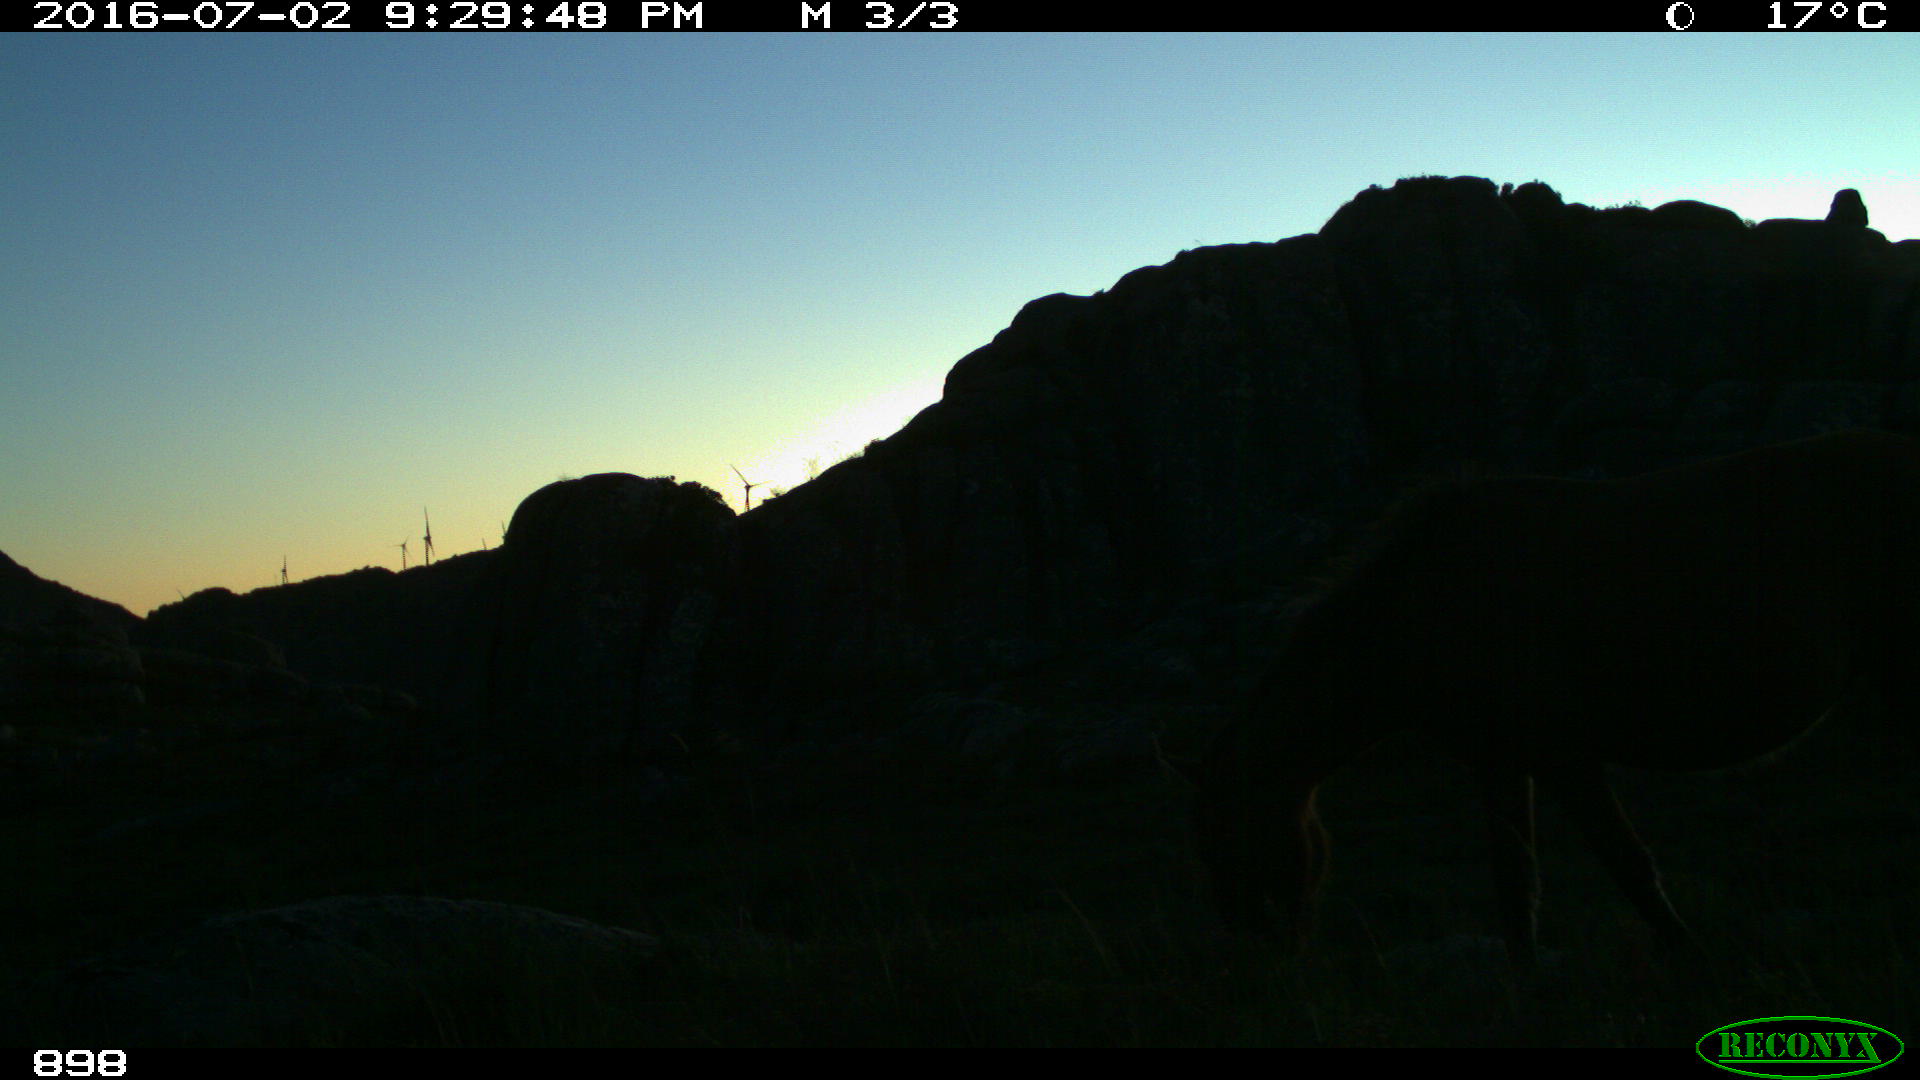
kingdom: Animalia
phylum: Chordata
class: Mammalia
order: Perissodactyla
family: Equidae
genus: Equus
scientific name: Equus caballus
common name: Horse
